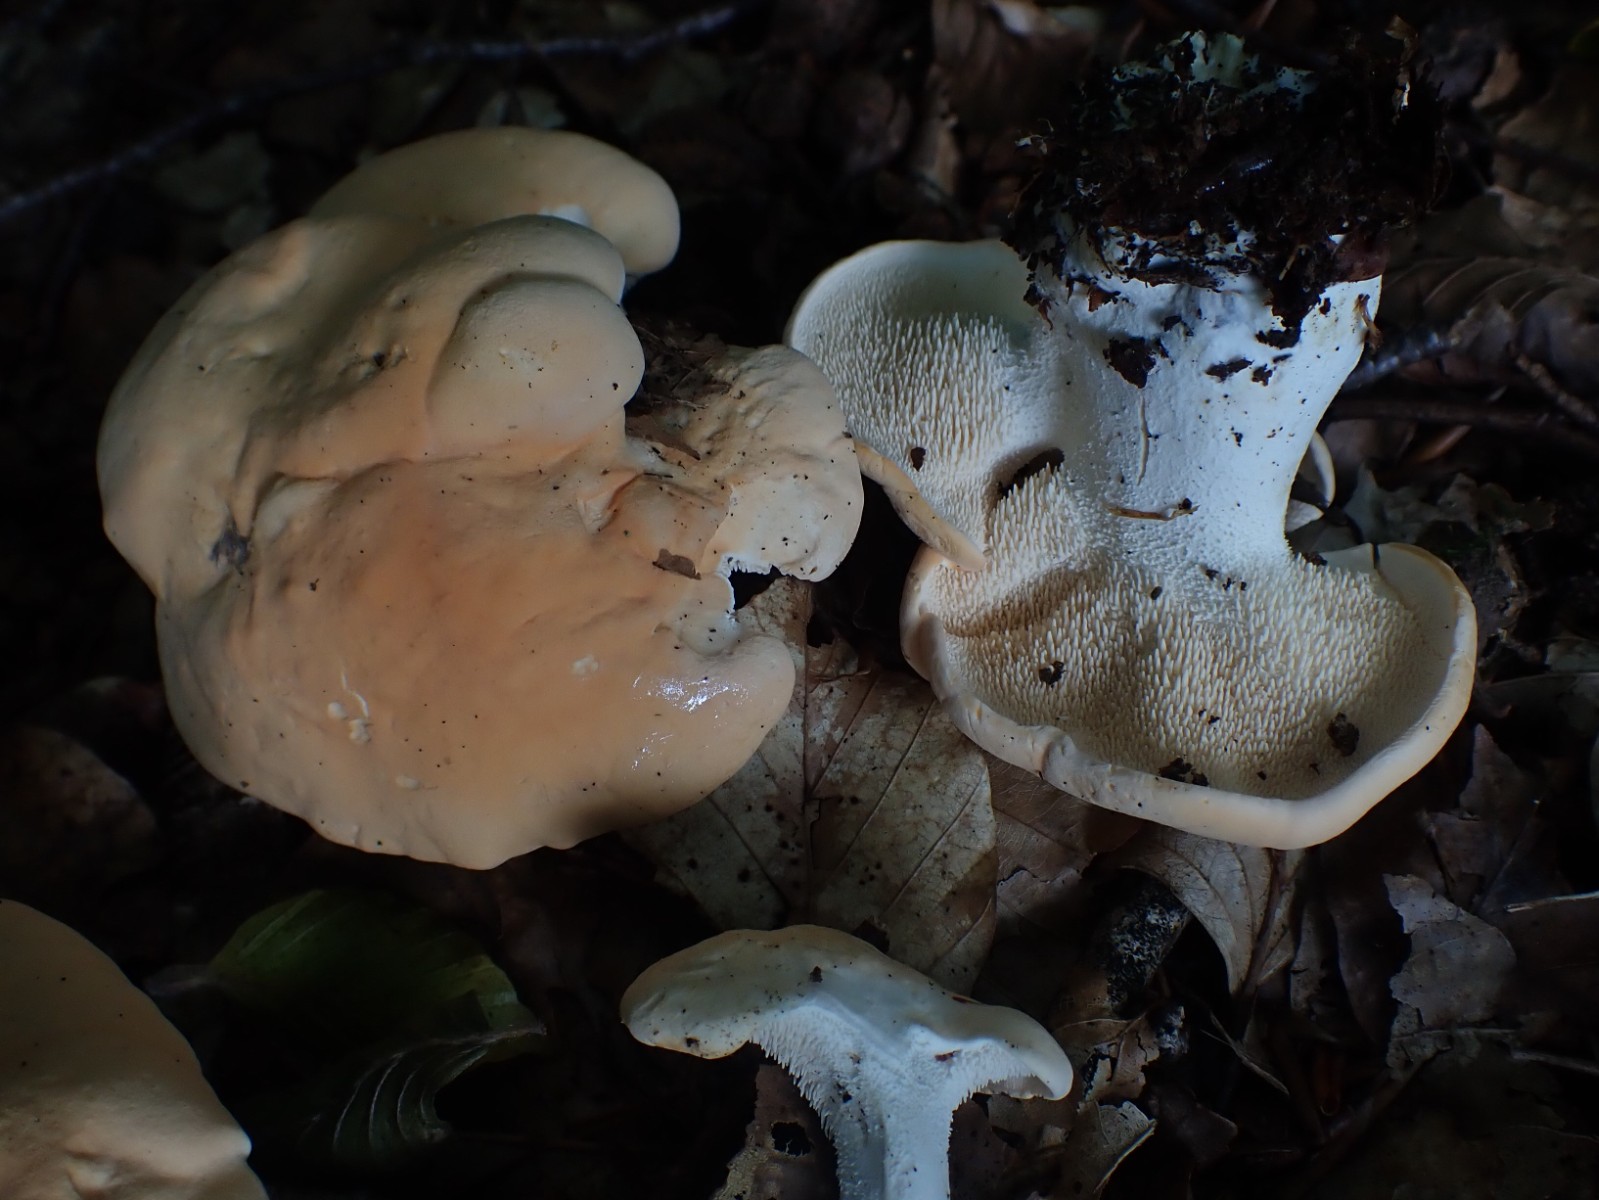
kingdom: Fungi
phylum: Basidiomycota
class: Agaricomycetes
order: Cantharellales
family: Hydnaceae
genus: Hydnum
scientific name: Hydnum
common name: pigsvamp
